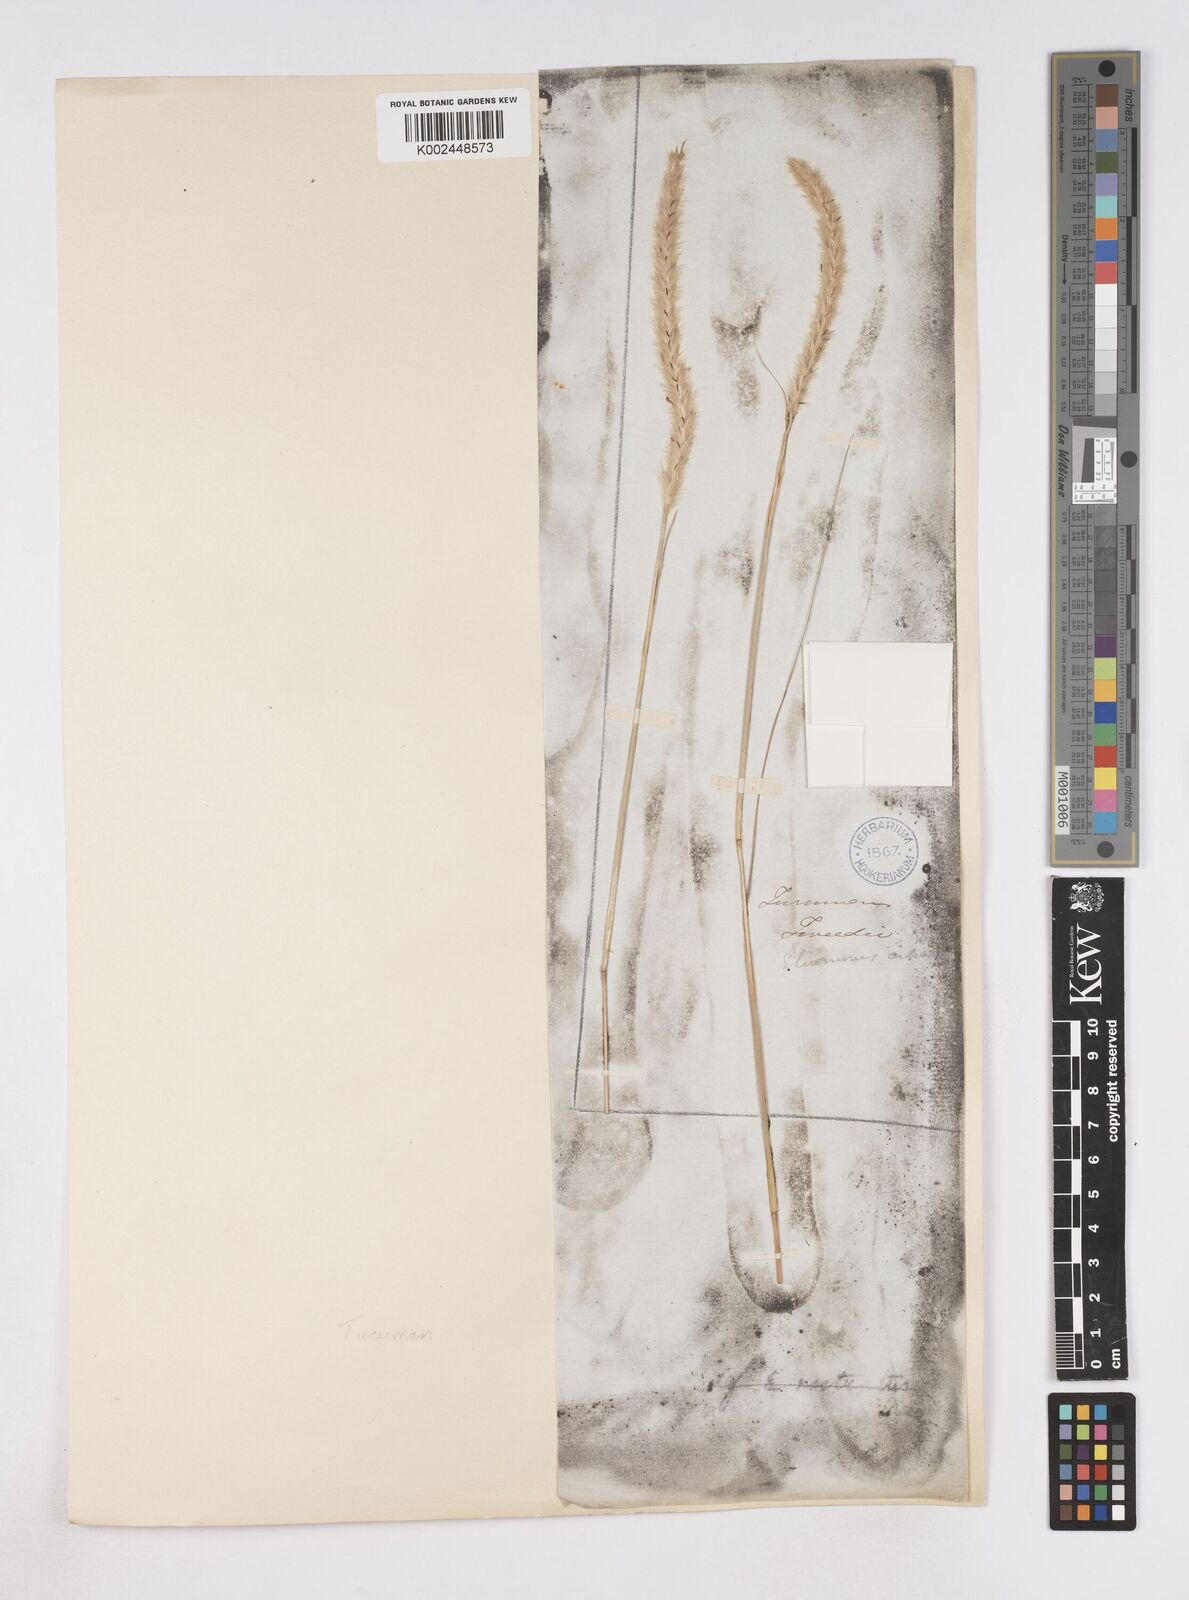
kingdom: Plantae
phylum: Tracheophyta
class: Liliopsida
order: Poales
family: Poaceae
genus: Elionurus
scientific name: Elionurus muticus
